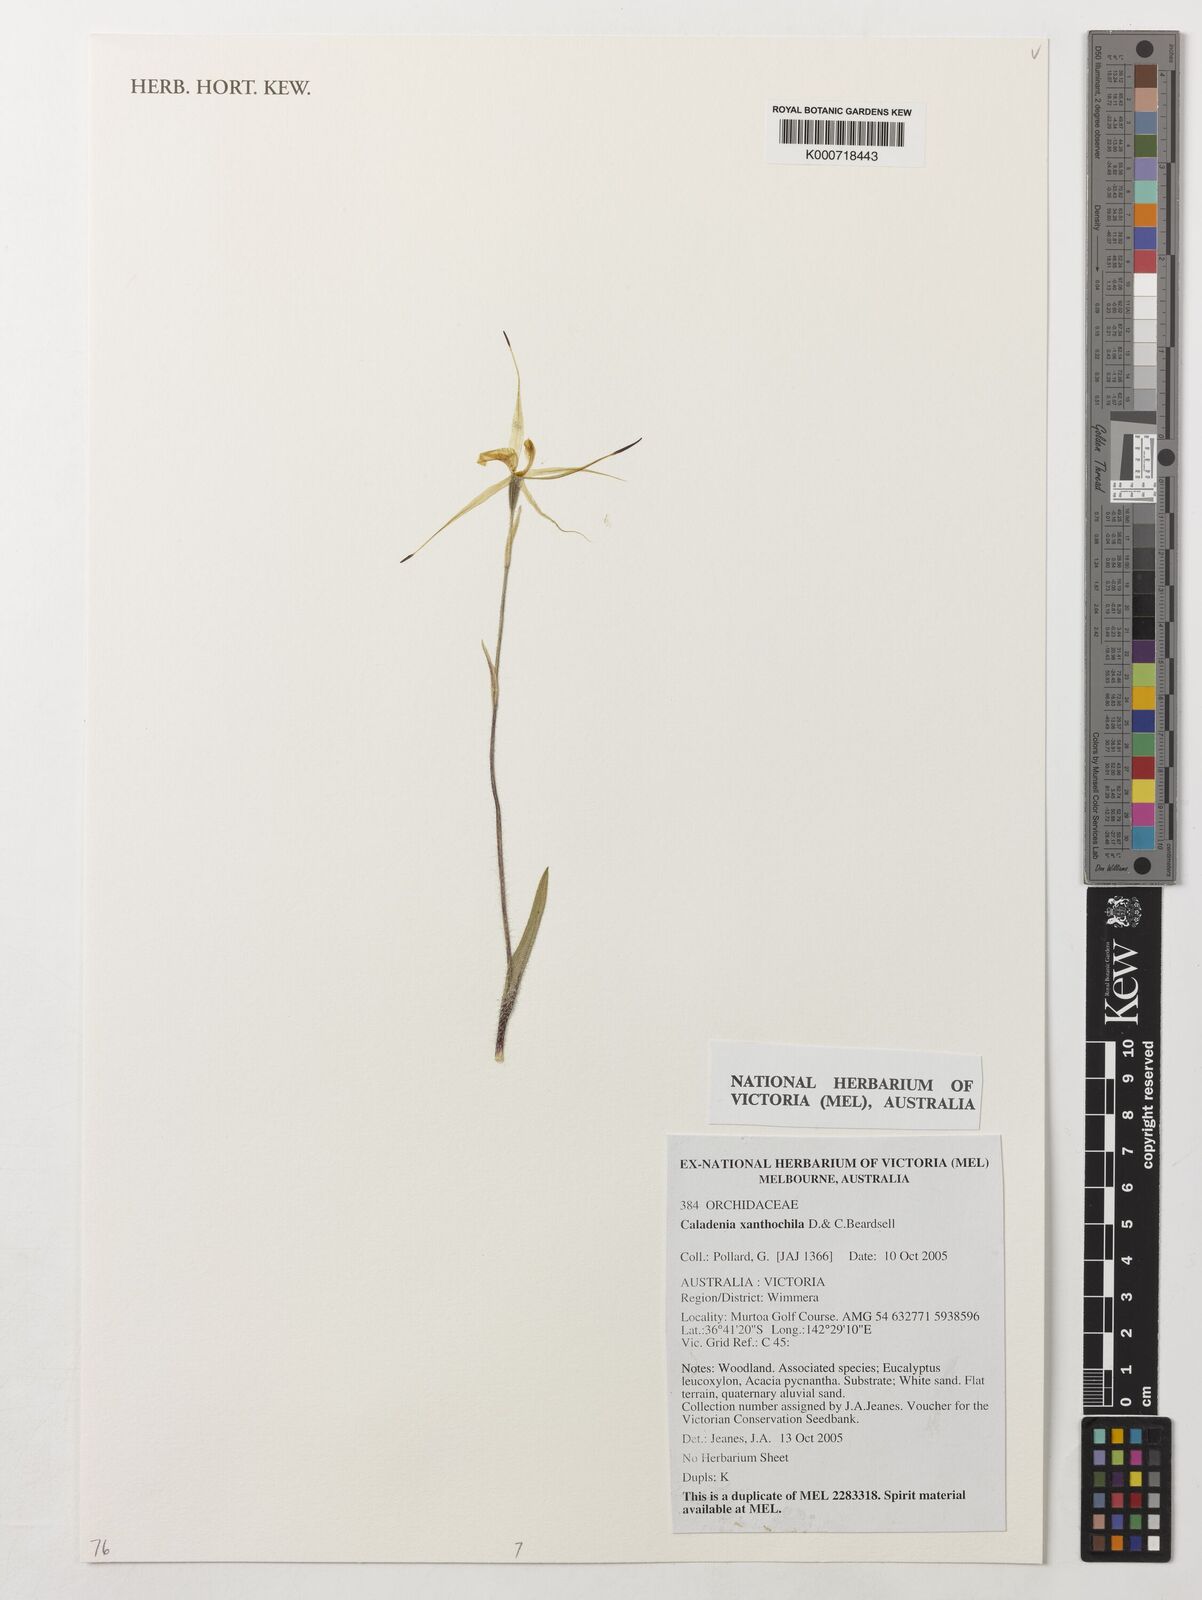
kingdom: Plantae
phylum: Tracheophyta
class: Liliopsida
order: Asparagales
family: Orchidaceae
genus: Caladenia
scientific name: Caladenia xanthochila
